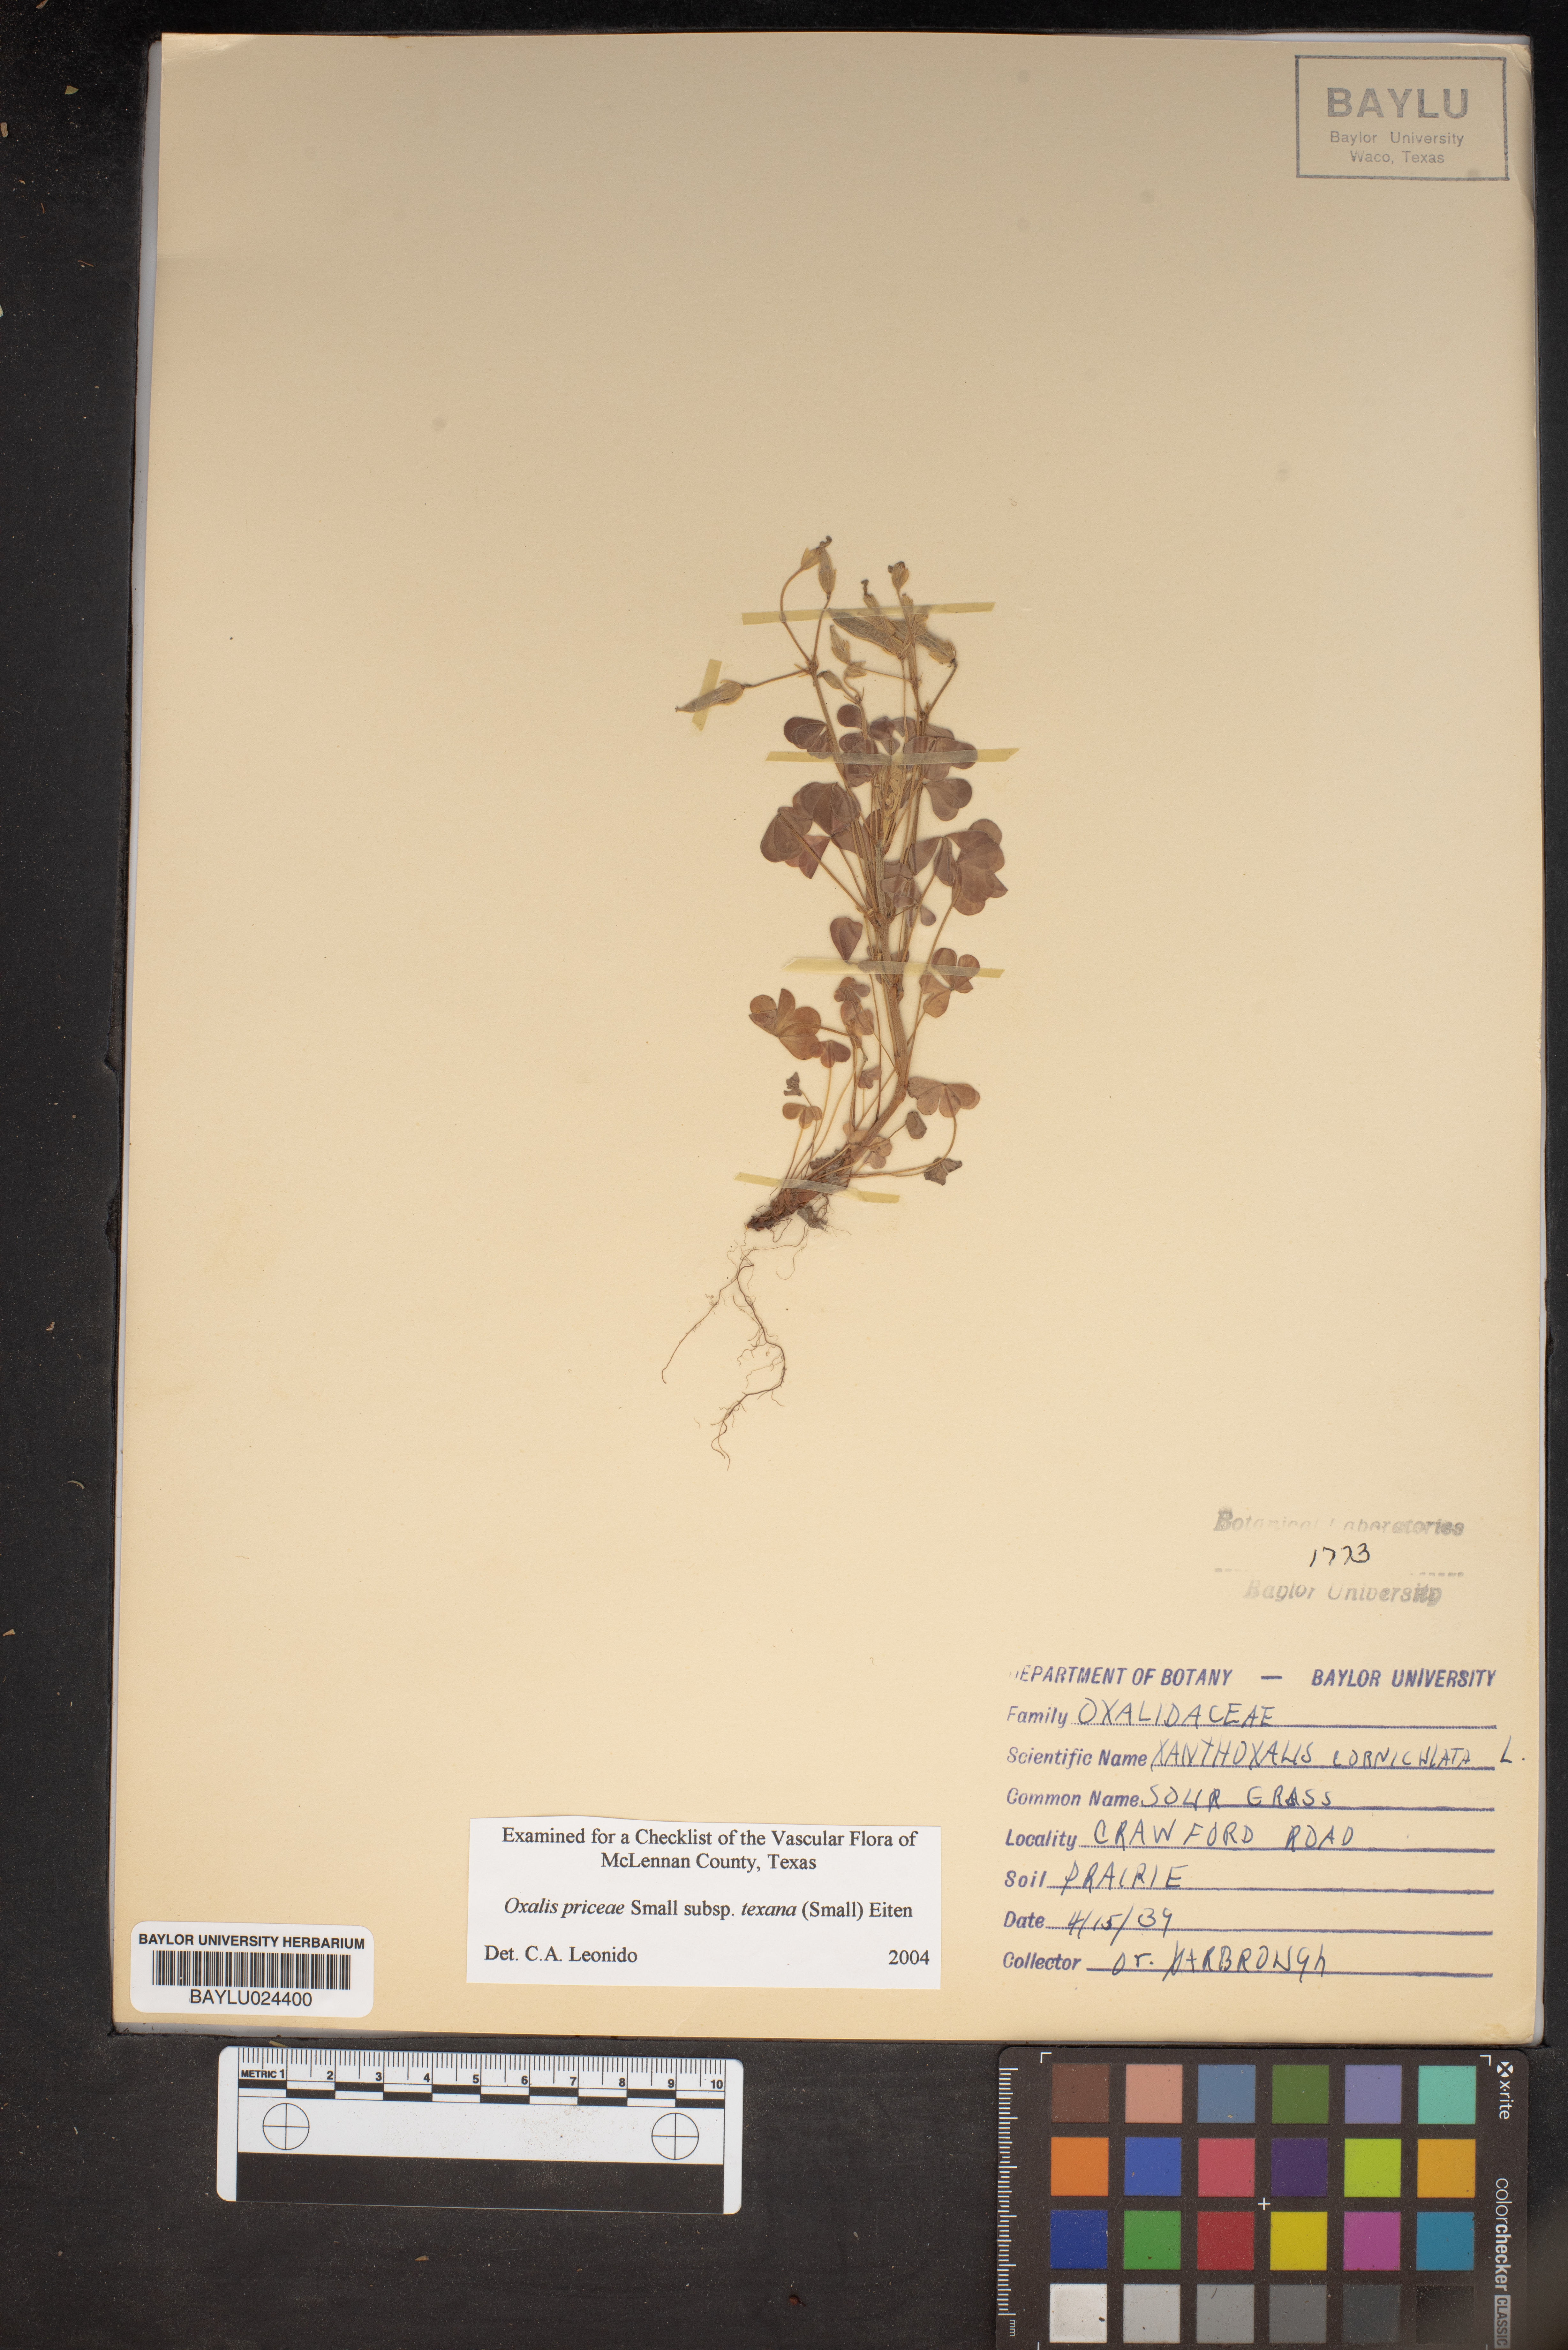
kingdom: Plantae
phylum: Tracheophyta
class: Magnoliopsida
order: Oxalidales
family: Oxalidaceae
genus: Oxalis
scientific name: Oxalis texana
